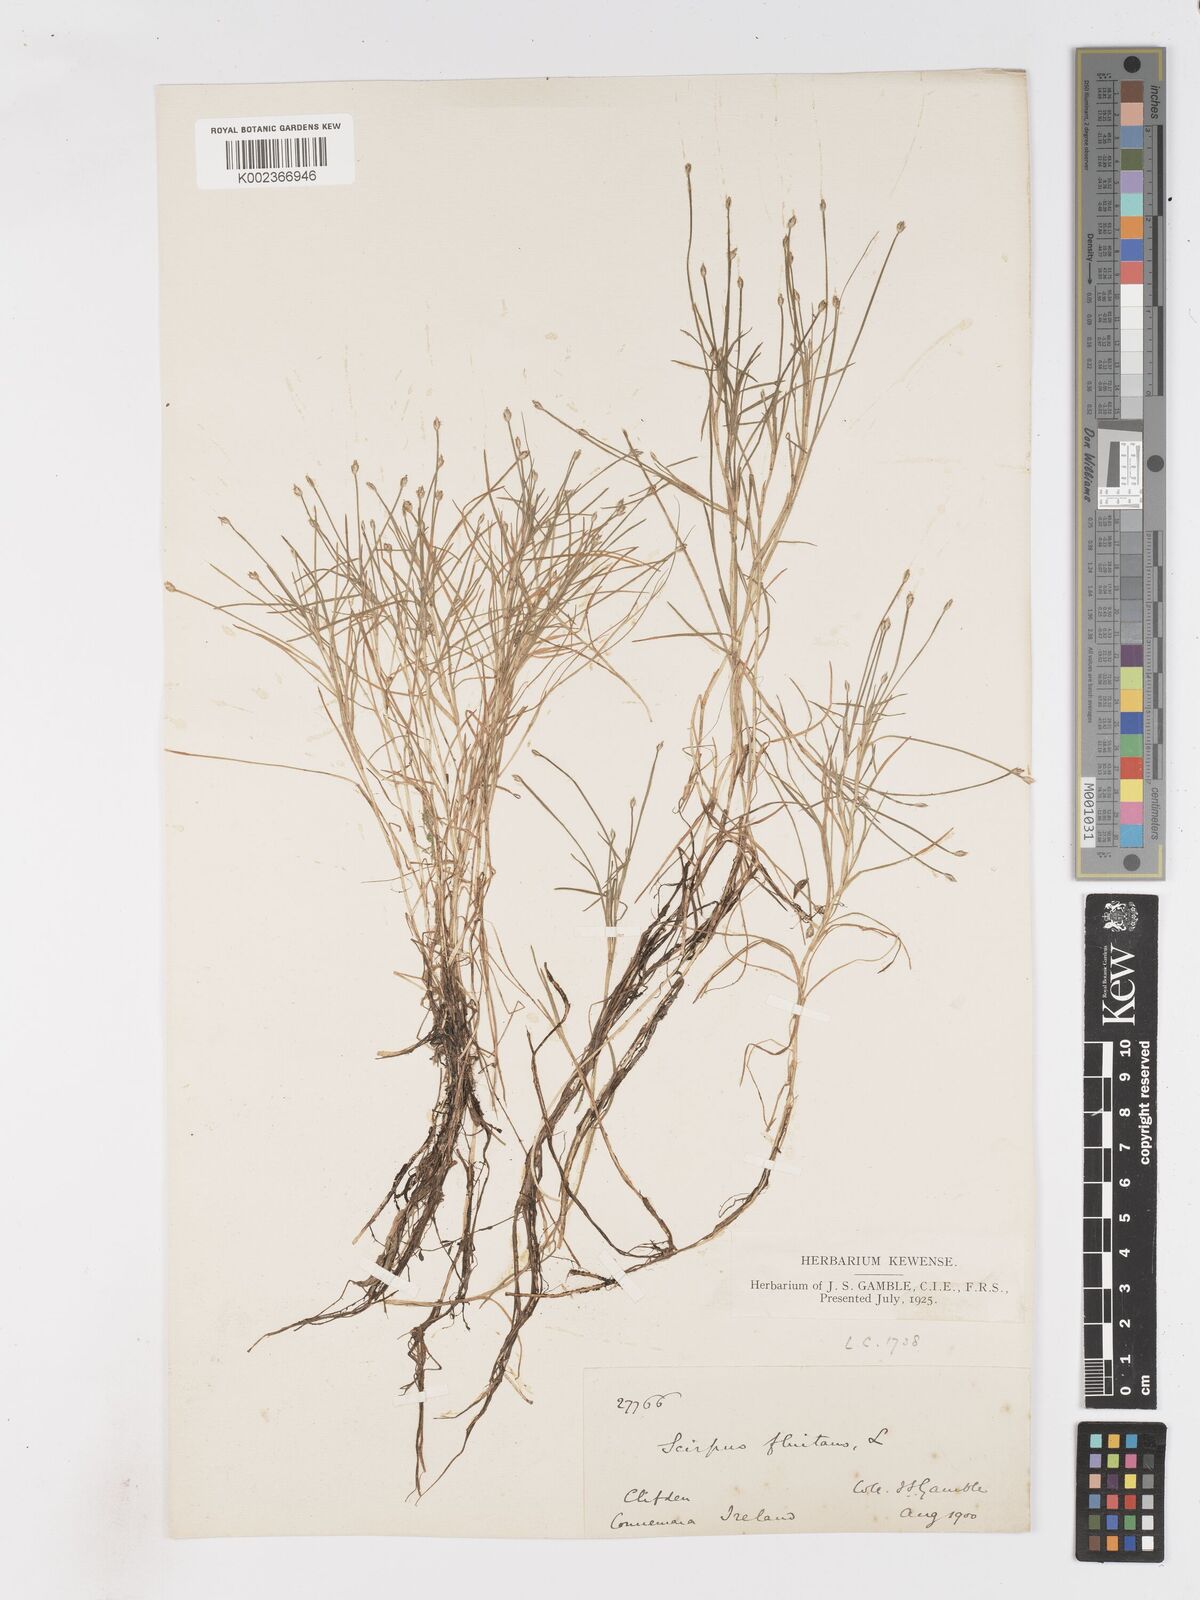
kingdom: Plantae
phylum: Tracheophyta
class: Liliopsida
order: Poales
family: Cyperaceae
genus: Isolepis
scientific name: Isolepis fluitans
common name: Floating club-rush
